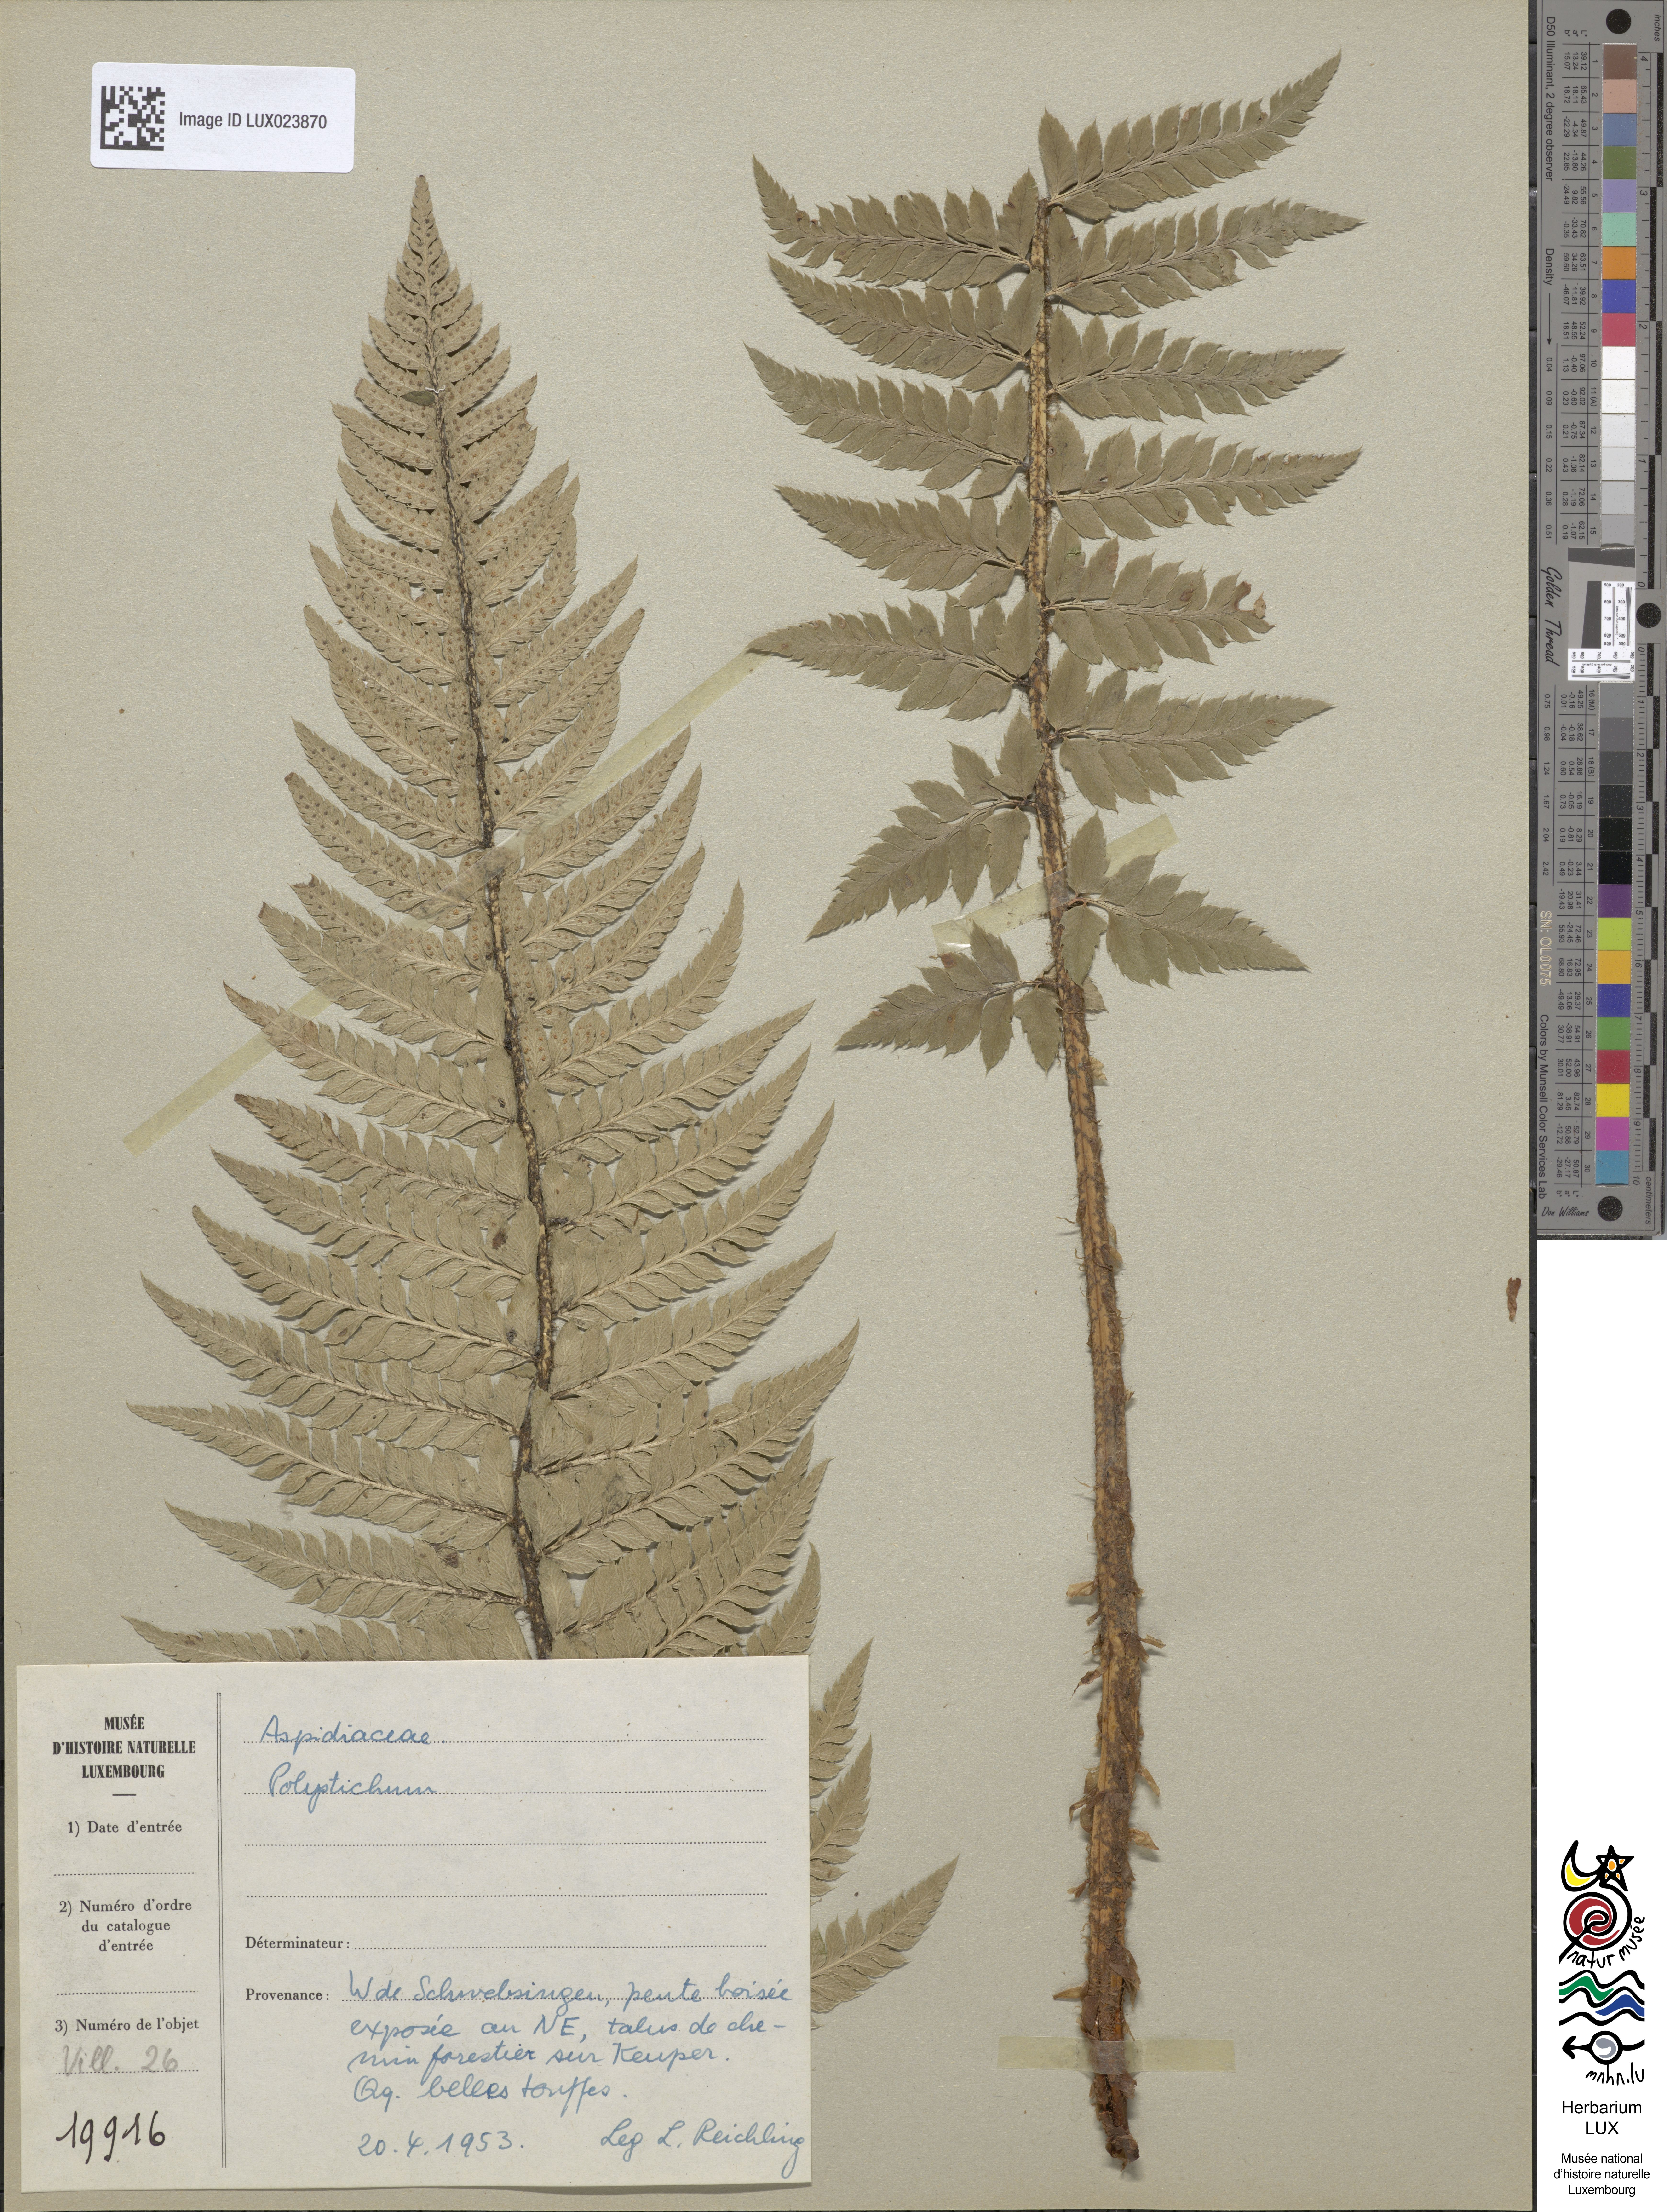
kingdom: Plantae
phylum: Tracheophyta
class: Polypodiopsida
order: Polypodiales
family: Dryopteridaceae
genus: Polystichum
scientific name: Polystichum
